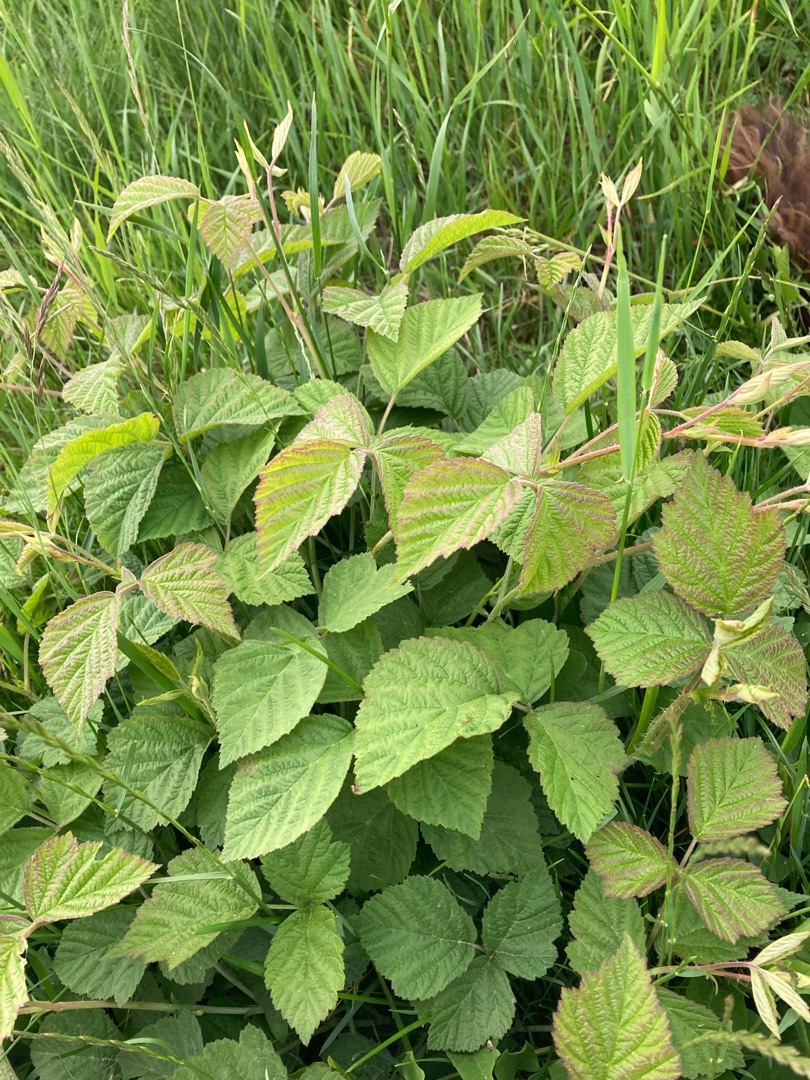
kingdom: Plantae
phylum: Tracheophyta
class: Magnoliopsida
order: Rosales
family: Rosaceae
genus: Rubus
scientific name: Rubus caesius
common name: Korbær
